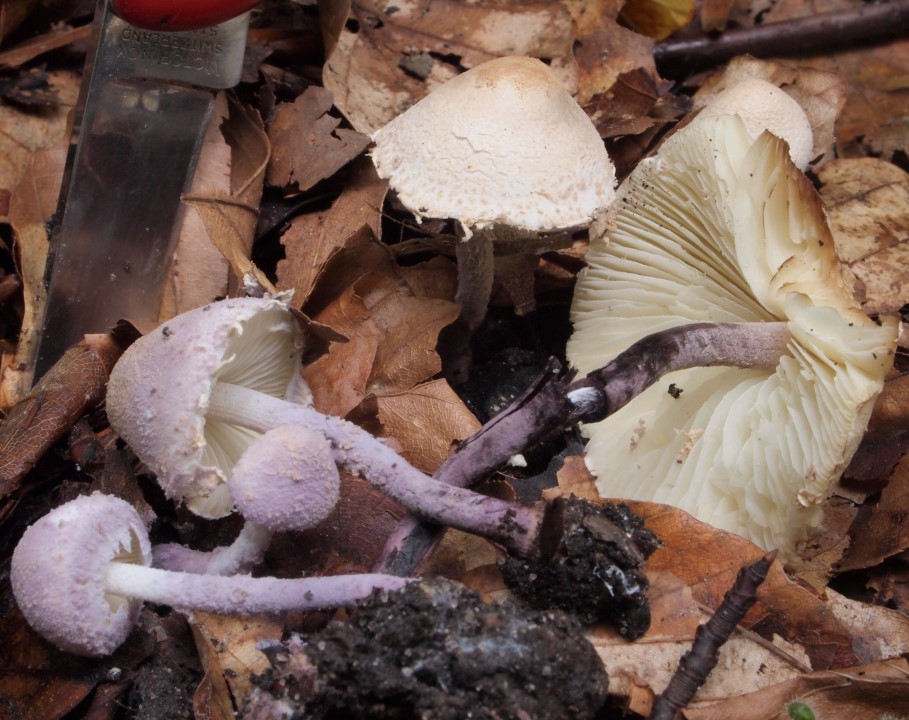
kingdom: Fungi
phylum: Basidiomycota
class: Agaricomycetes
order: Agaricales
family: Agaricaceae
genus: Cystolepiota
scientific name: Cystolepiota bucknallii
